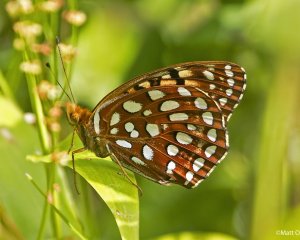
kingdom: Animalia
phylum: Arthropoda
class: Insecta
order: Lepidoptera
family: Nymphalidae
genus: Speyeria
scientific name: Speyeria aphrodite
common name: Aphrodite Fritillary
